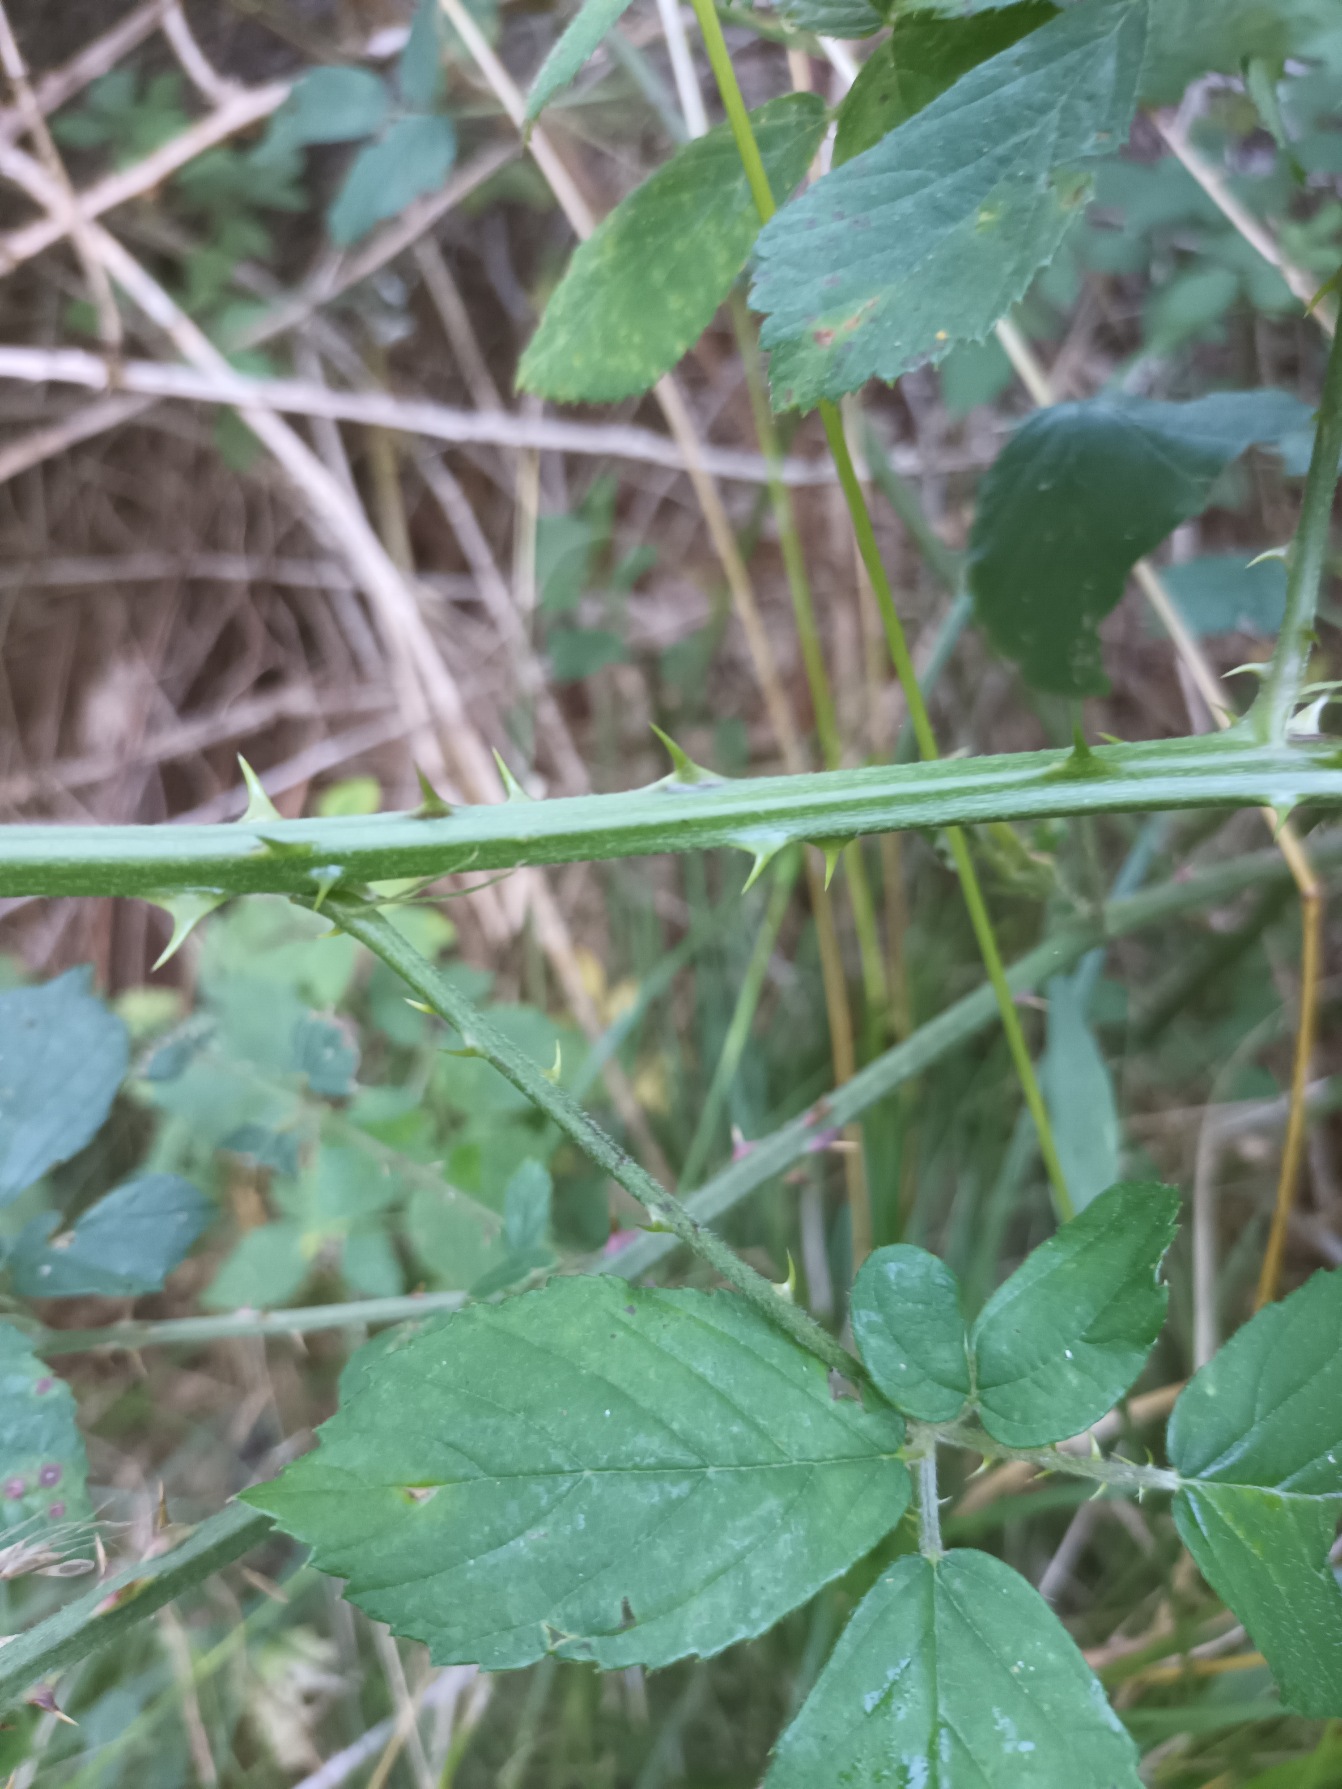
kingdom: Plantae
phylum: Tracheophyta
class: Magnoliopsida
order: Rosales
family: Rosaceae
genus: Rubus
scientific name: Rubus lindebergii
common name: Lindebergs brombær
